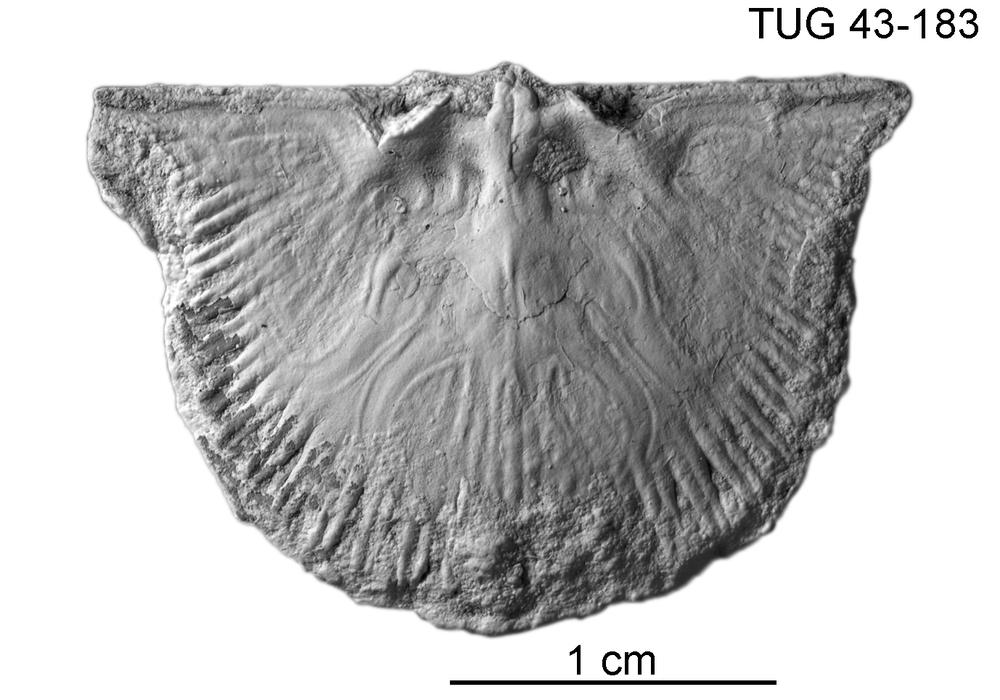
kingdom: Animalia
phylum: Brachiopoda
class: Rhynchonellata
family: Orthidae
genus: Cyrtonotella
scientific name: Cyrtonotella Orthis kuckersiana
